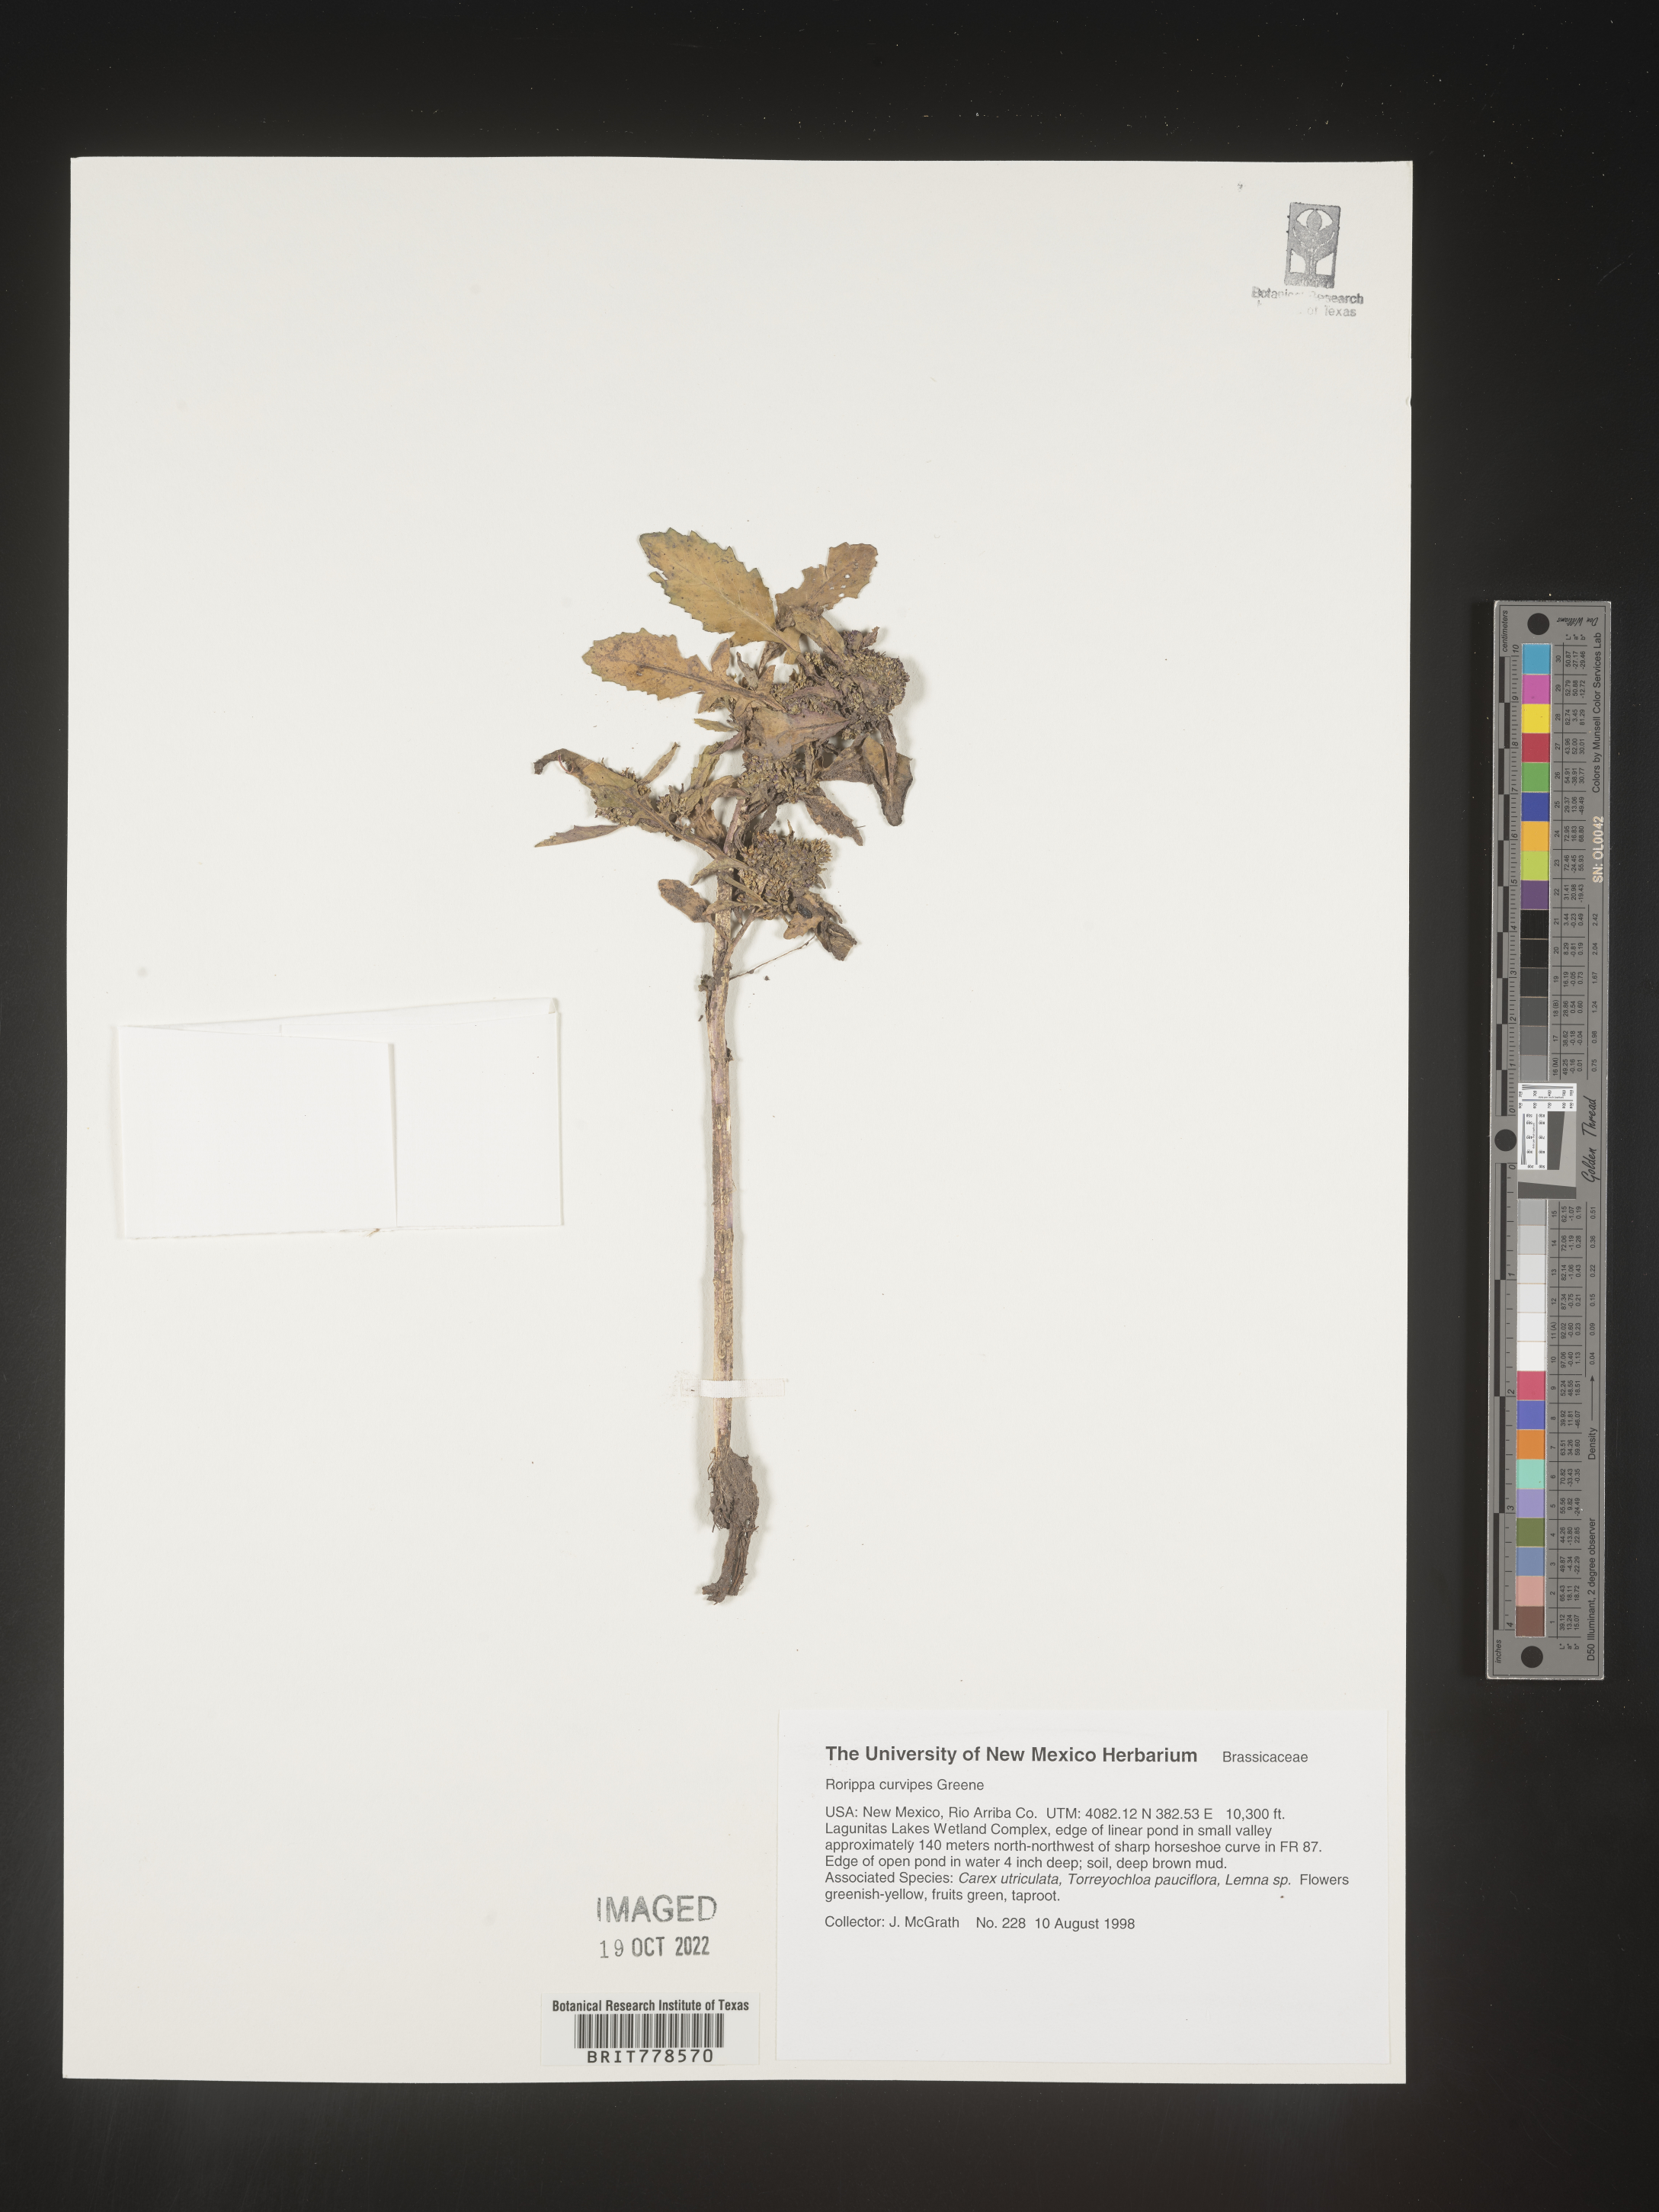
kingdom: Plantae
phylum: Tracheophyta
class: Magnoliopsida
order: Brassicales
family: Brassicaceae
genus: Rorippa
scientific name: Rorippa
